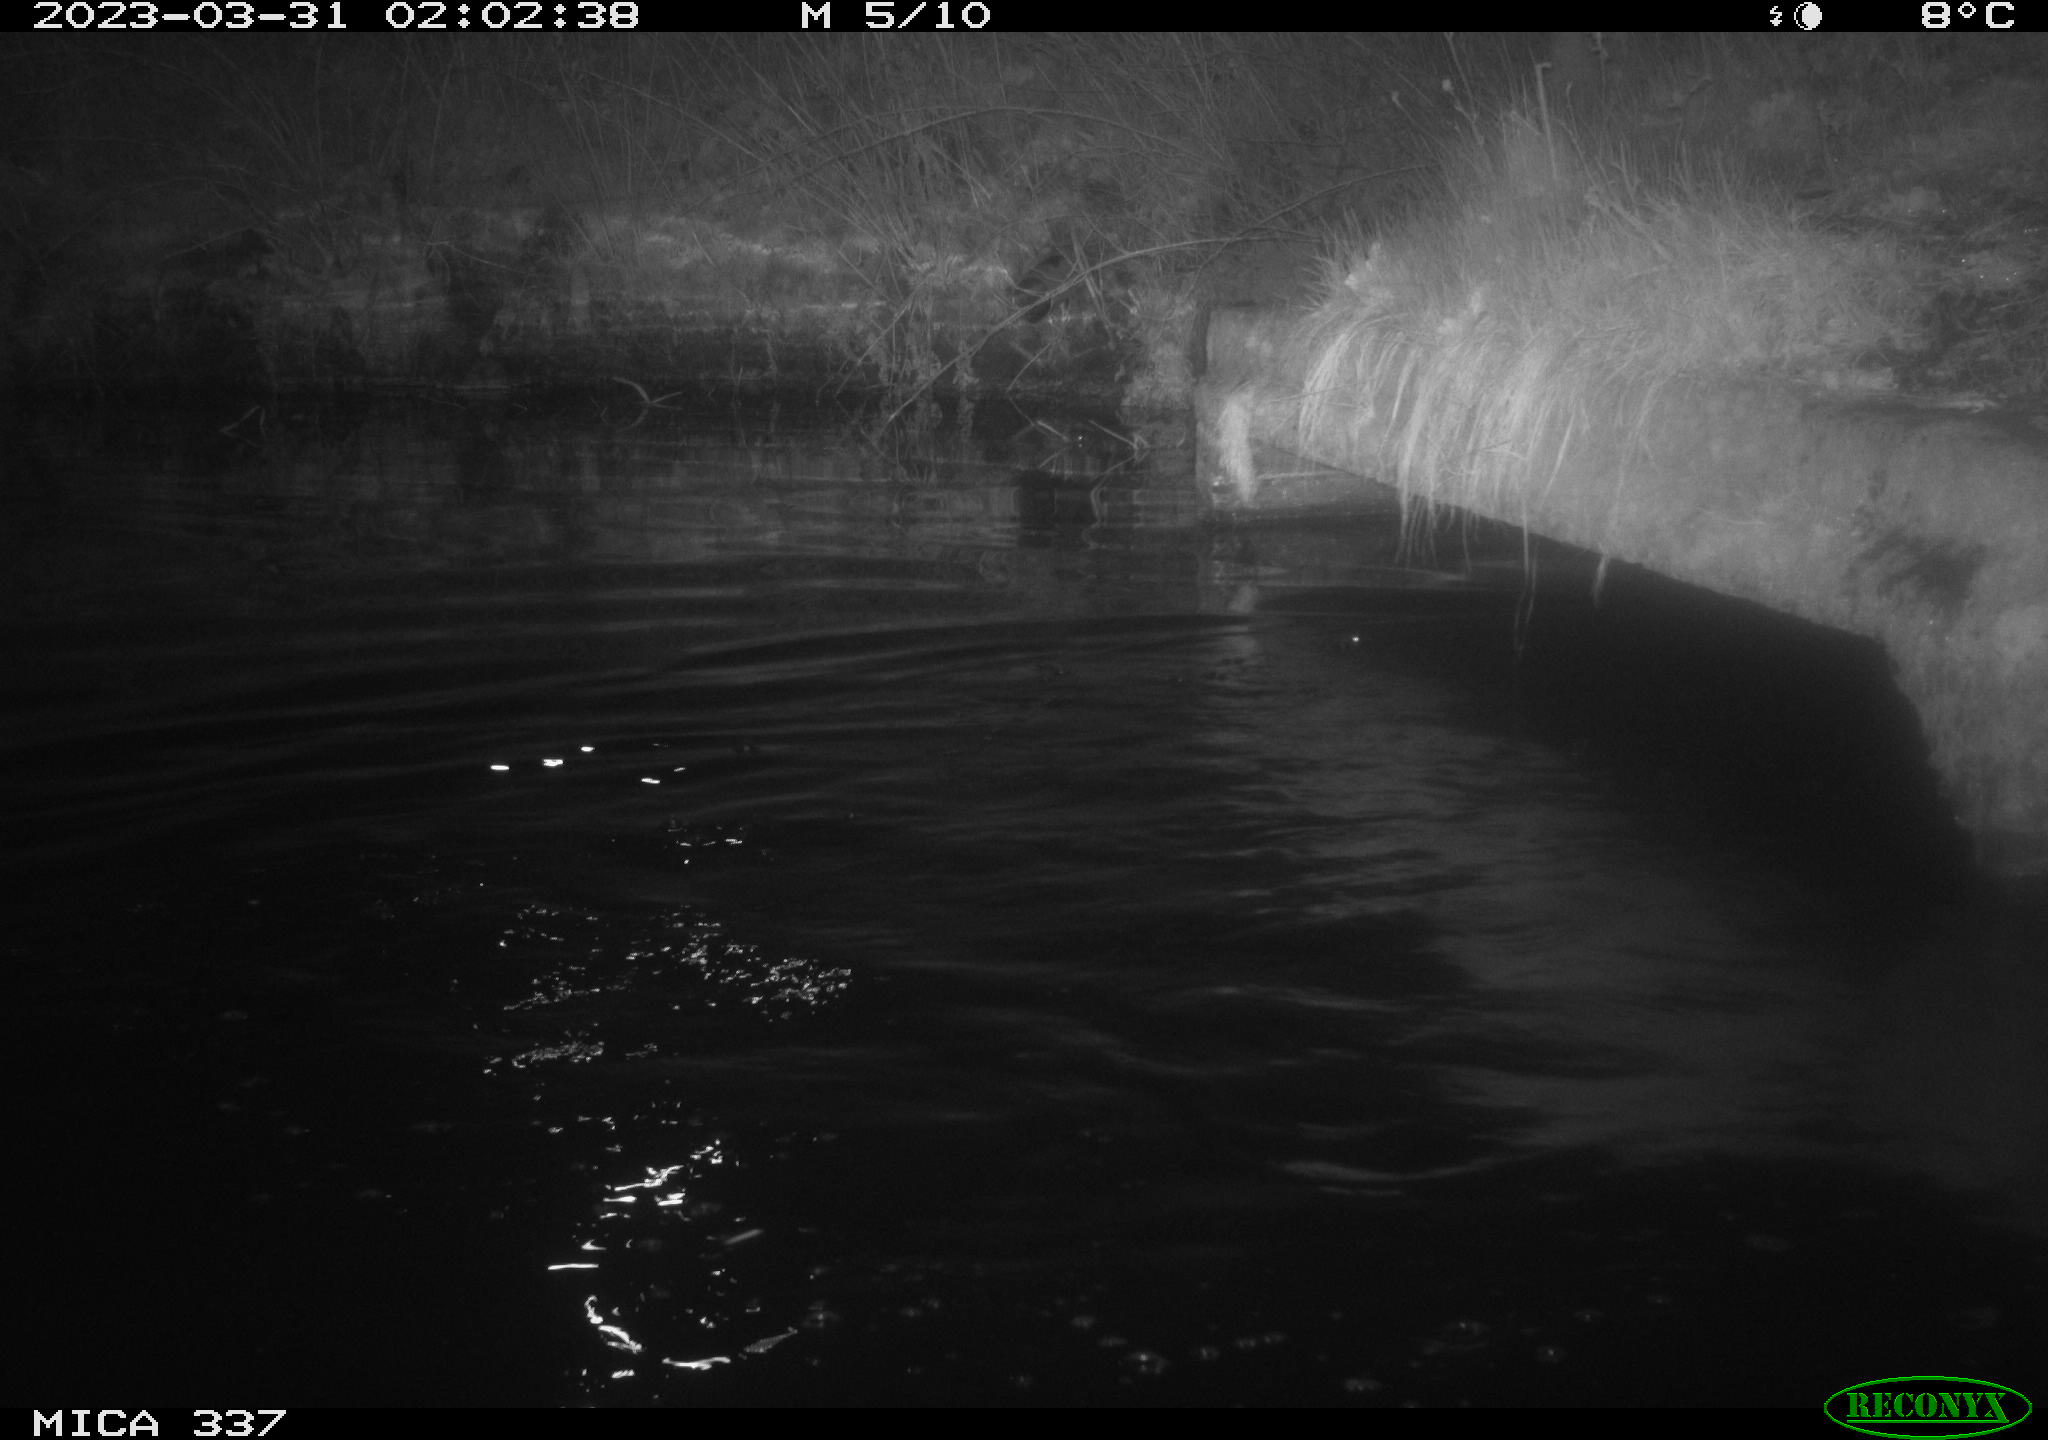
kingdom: Animalia
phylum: Chordata
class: Aves
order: Anseriformes
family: Anatidae
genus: Anas
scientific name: Anas
